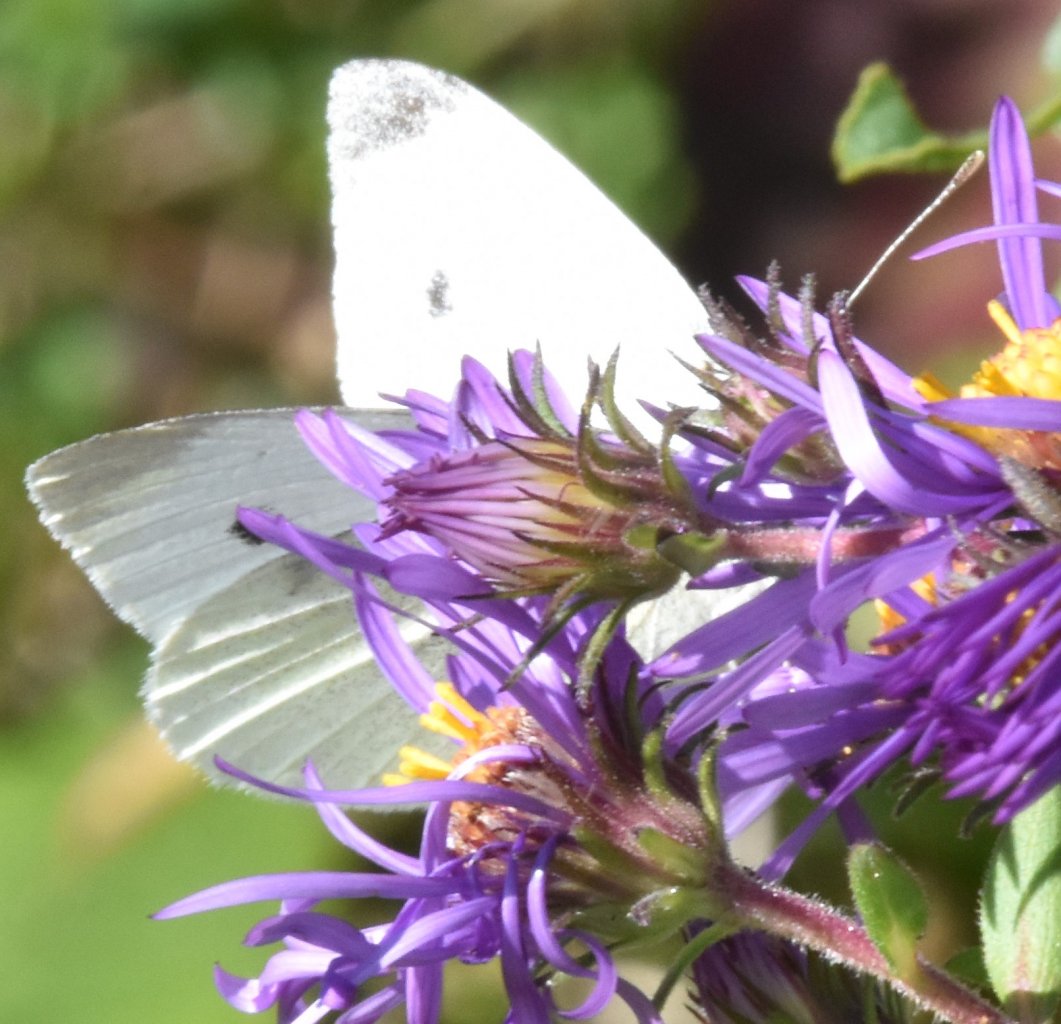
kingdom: Animalia
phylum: Arthropoda
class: Insecta
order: Lepidoptera
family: Pieridae
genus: Pieris
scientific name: Pieris rapae
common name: Cabbage White
